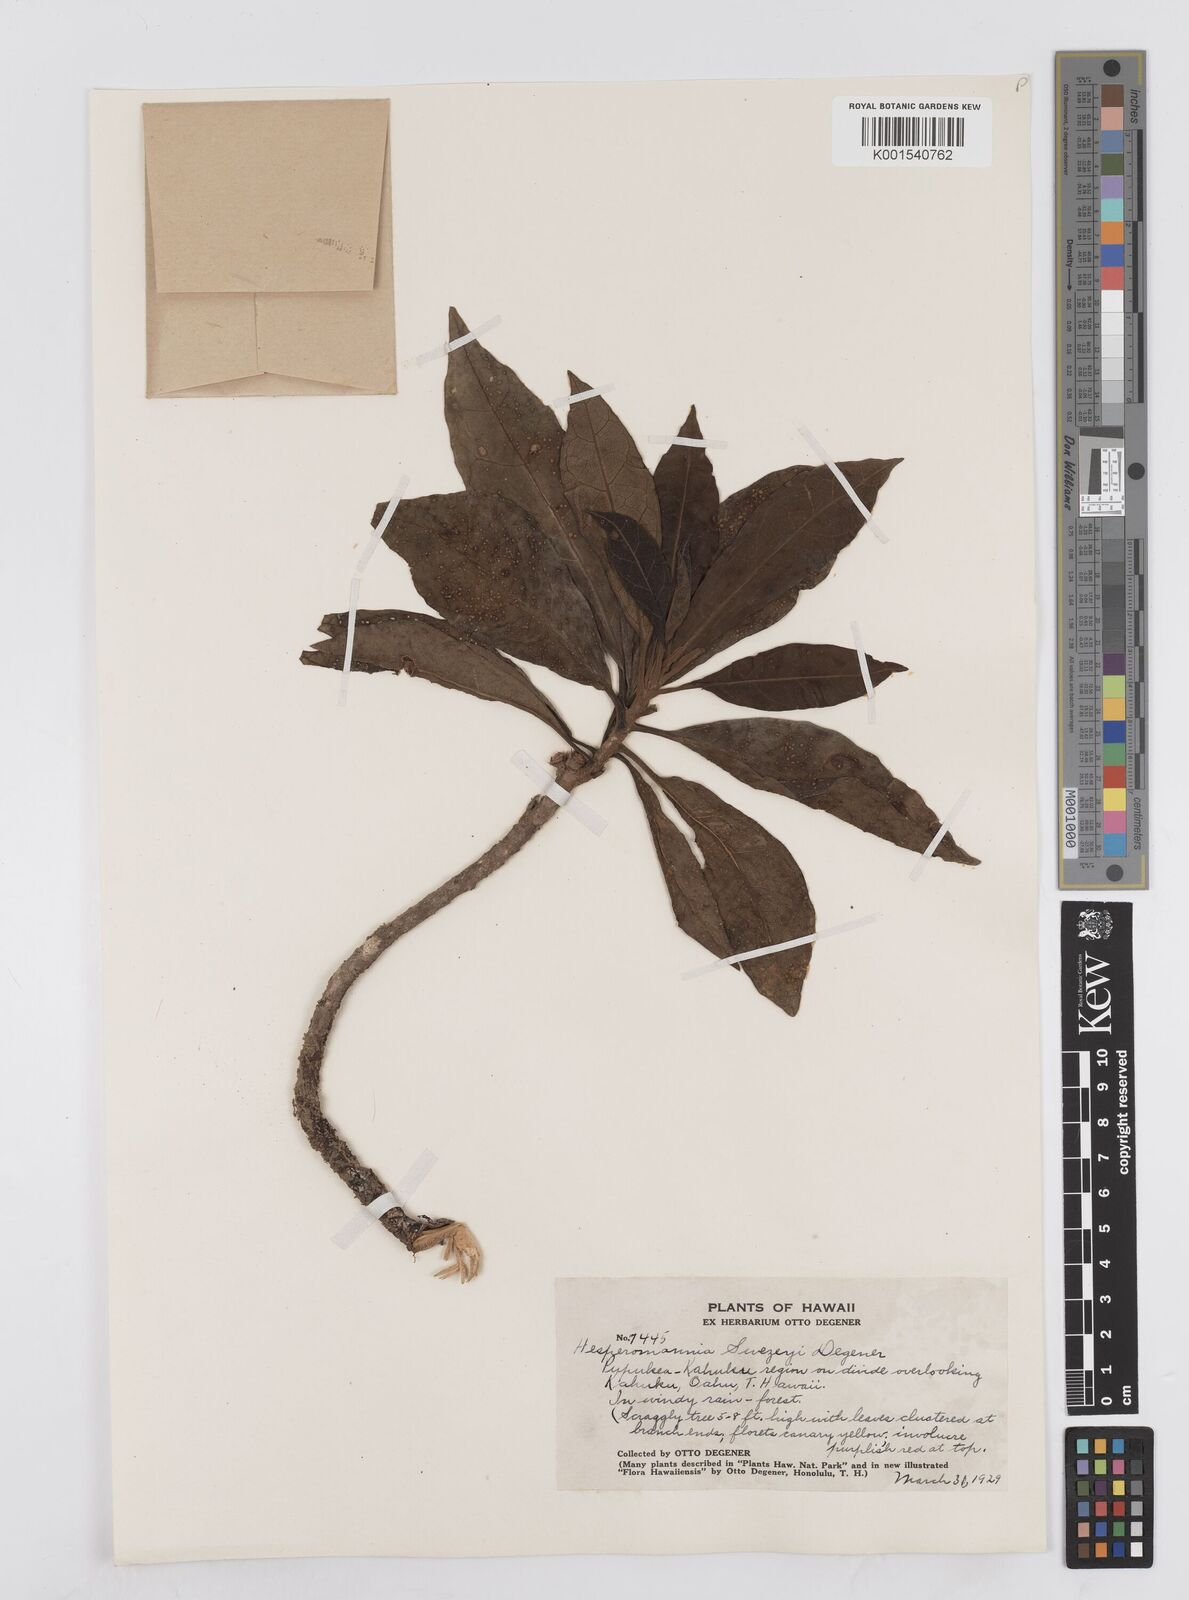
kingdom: Plantae
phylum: Tracheophyta
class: Magnoliopsida
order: Asterales
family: Asteraceae
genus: Hesperomannia
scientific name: Hesperomannia arborescens
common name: Lanai hesperomannia
